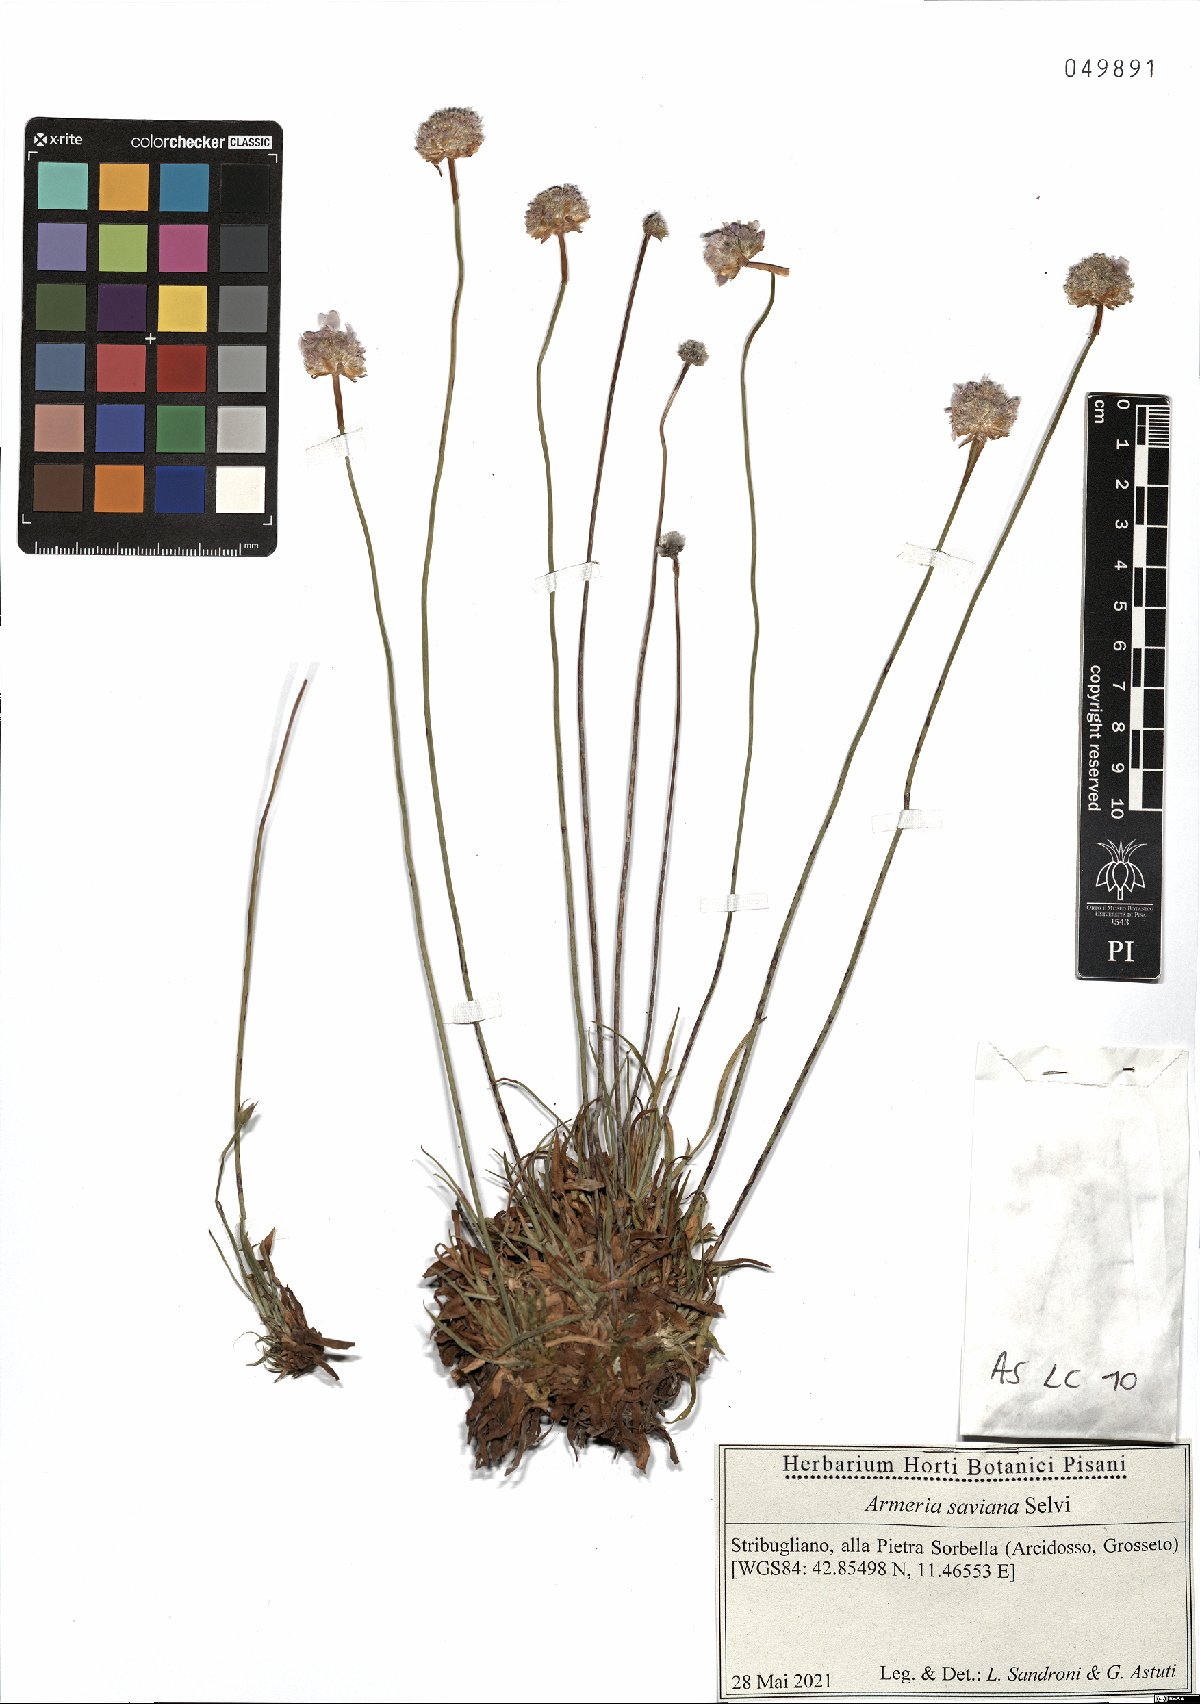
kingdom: Plantae
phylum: Tracheophyta
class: Magnoliopsida
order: Caryophyllales
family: Plumbaginaceae
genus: Armeria
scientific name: Armeria saviana
